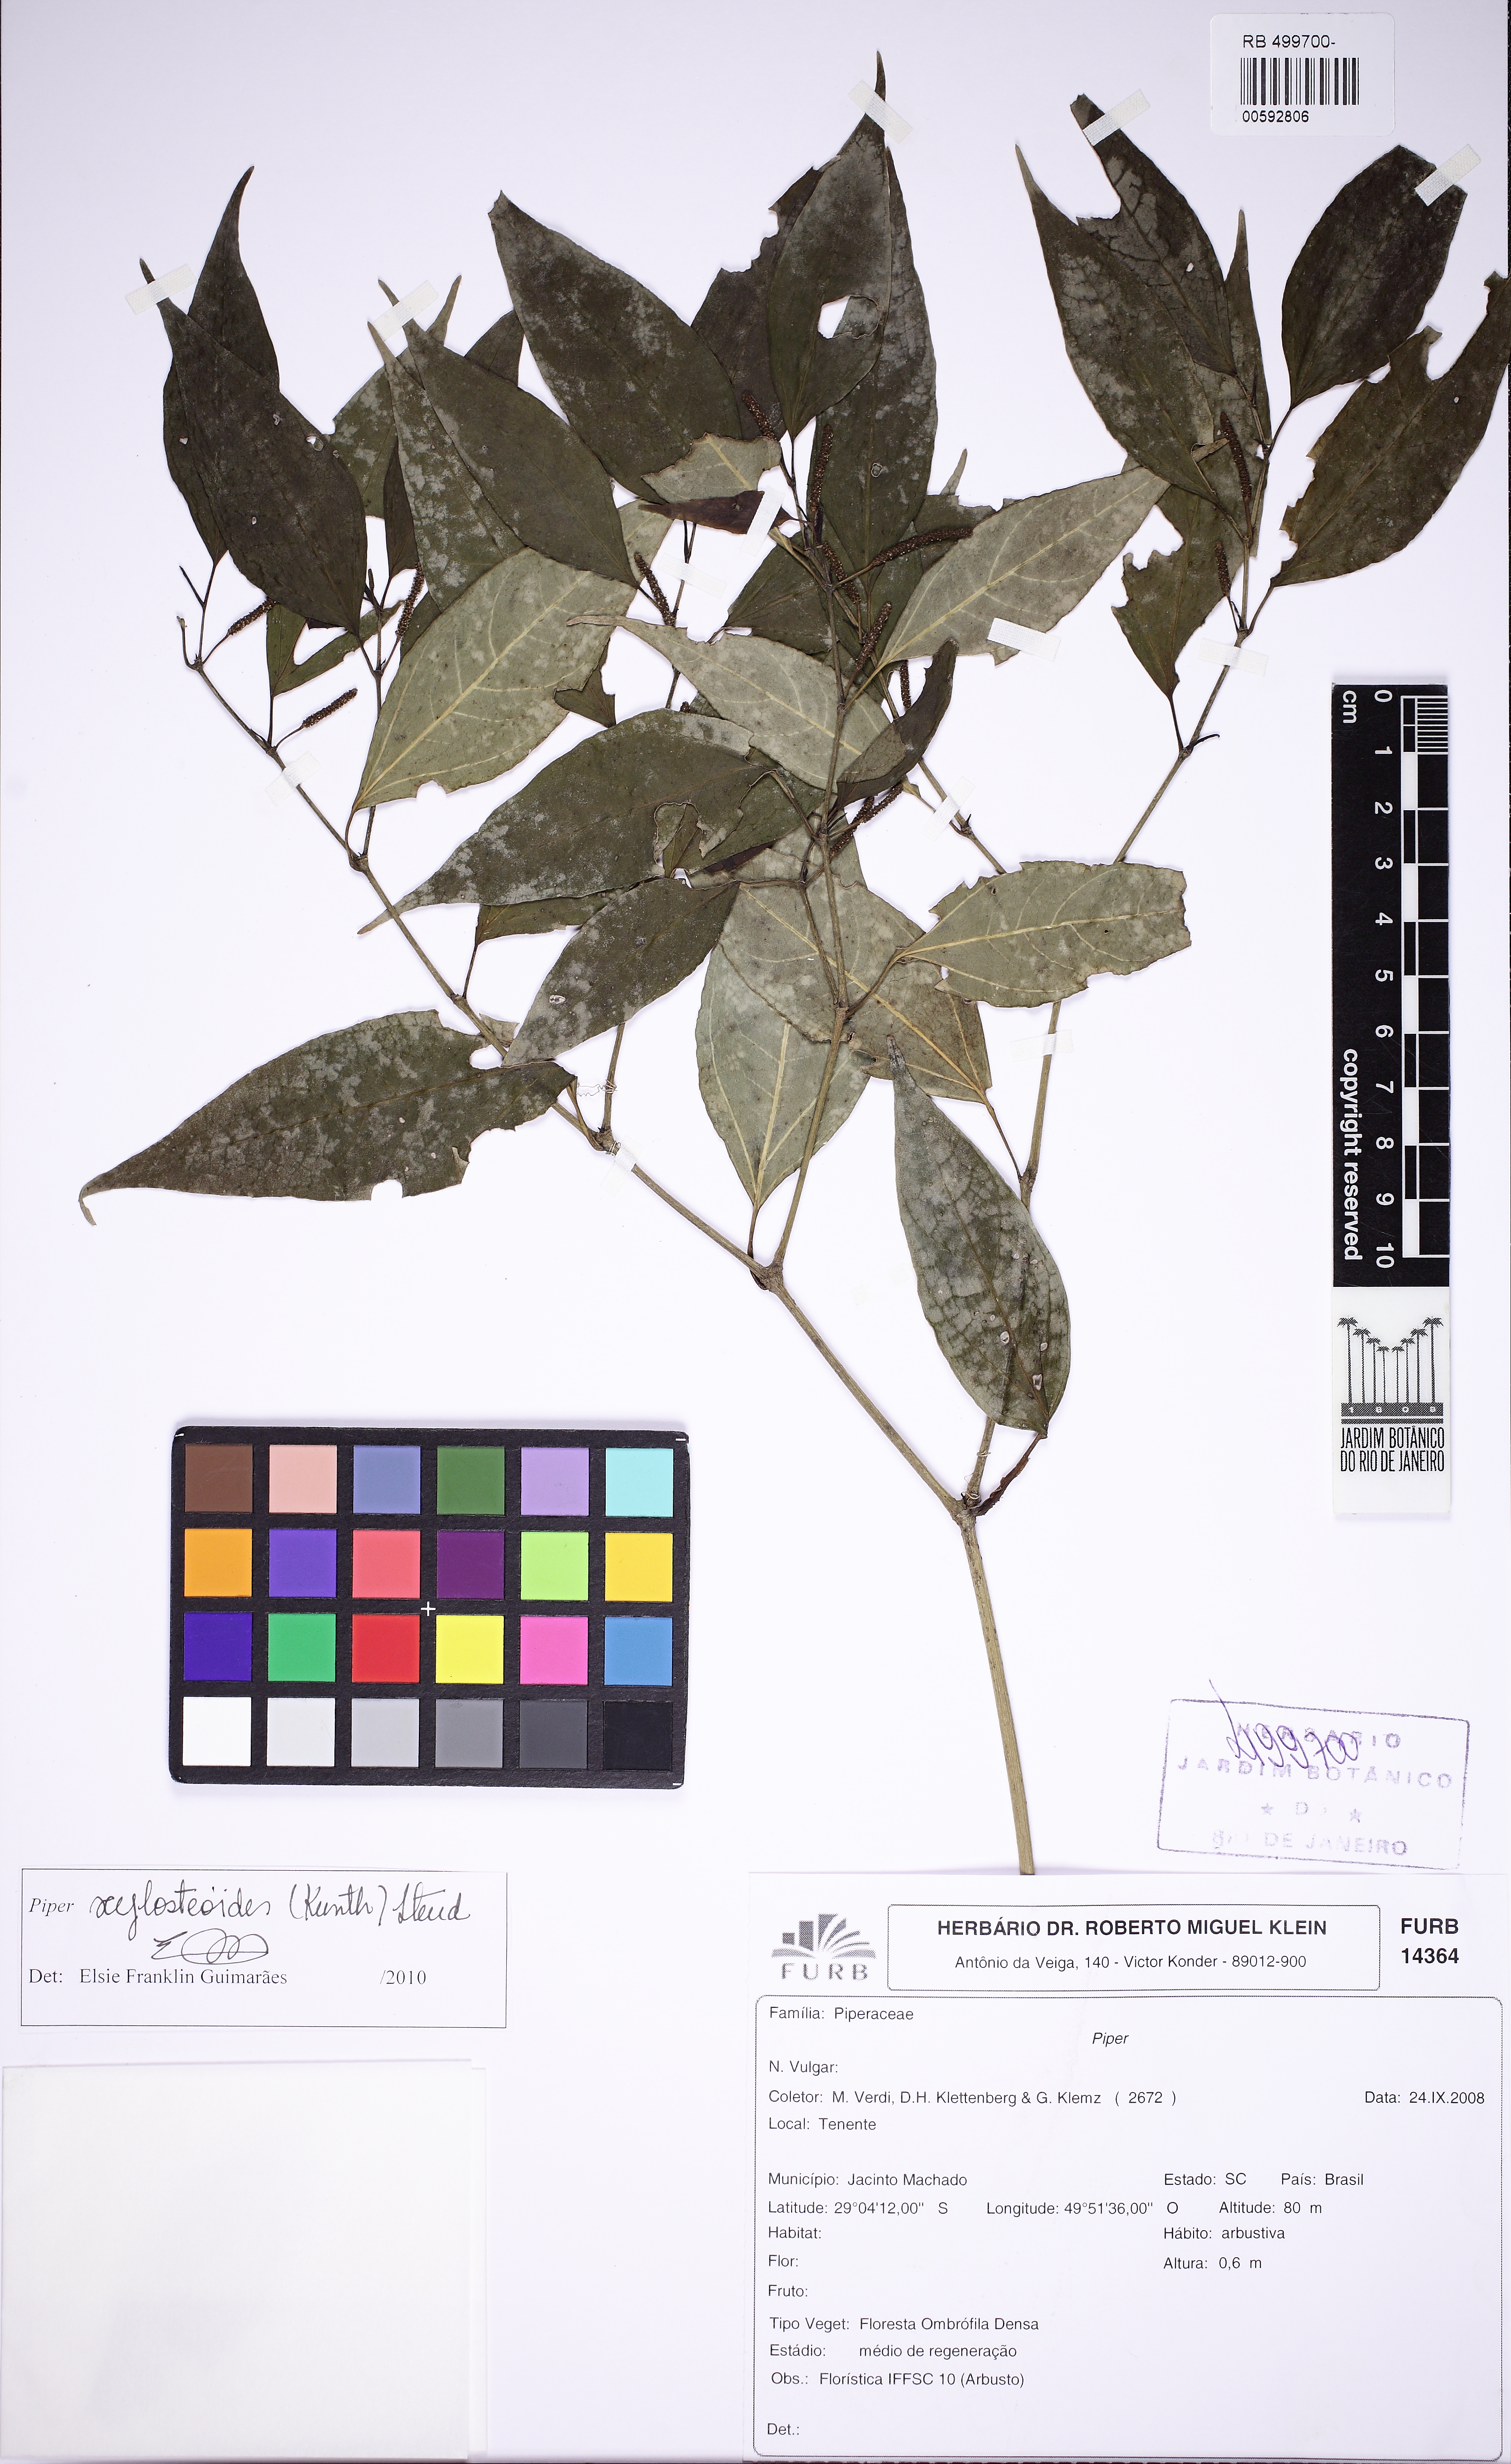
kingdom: Plantae
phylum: Tracheophyta
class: Magnoliopsida
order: Piperales
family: Piperaceae
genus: Piper
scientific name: Piper xylosteoides
